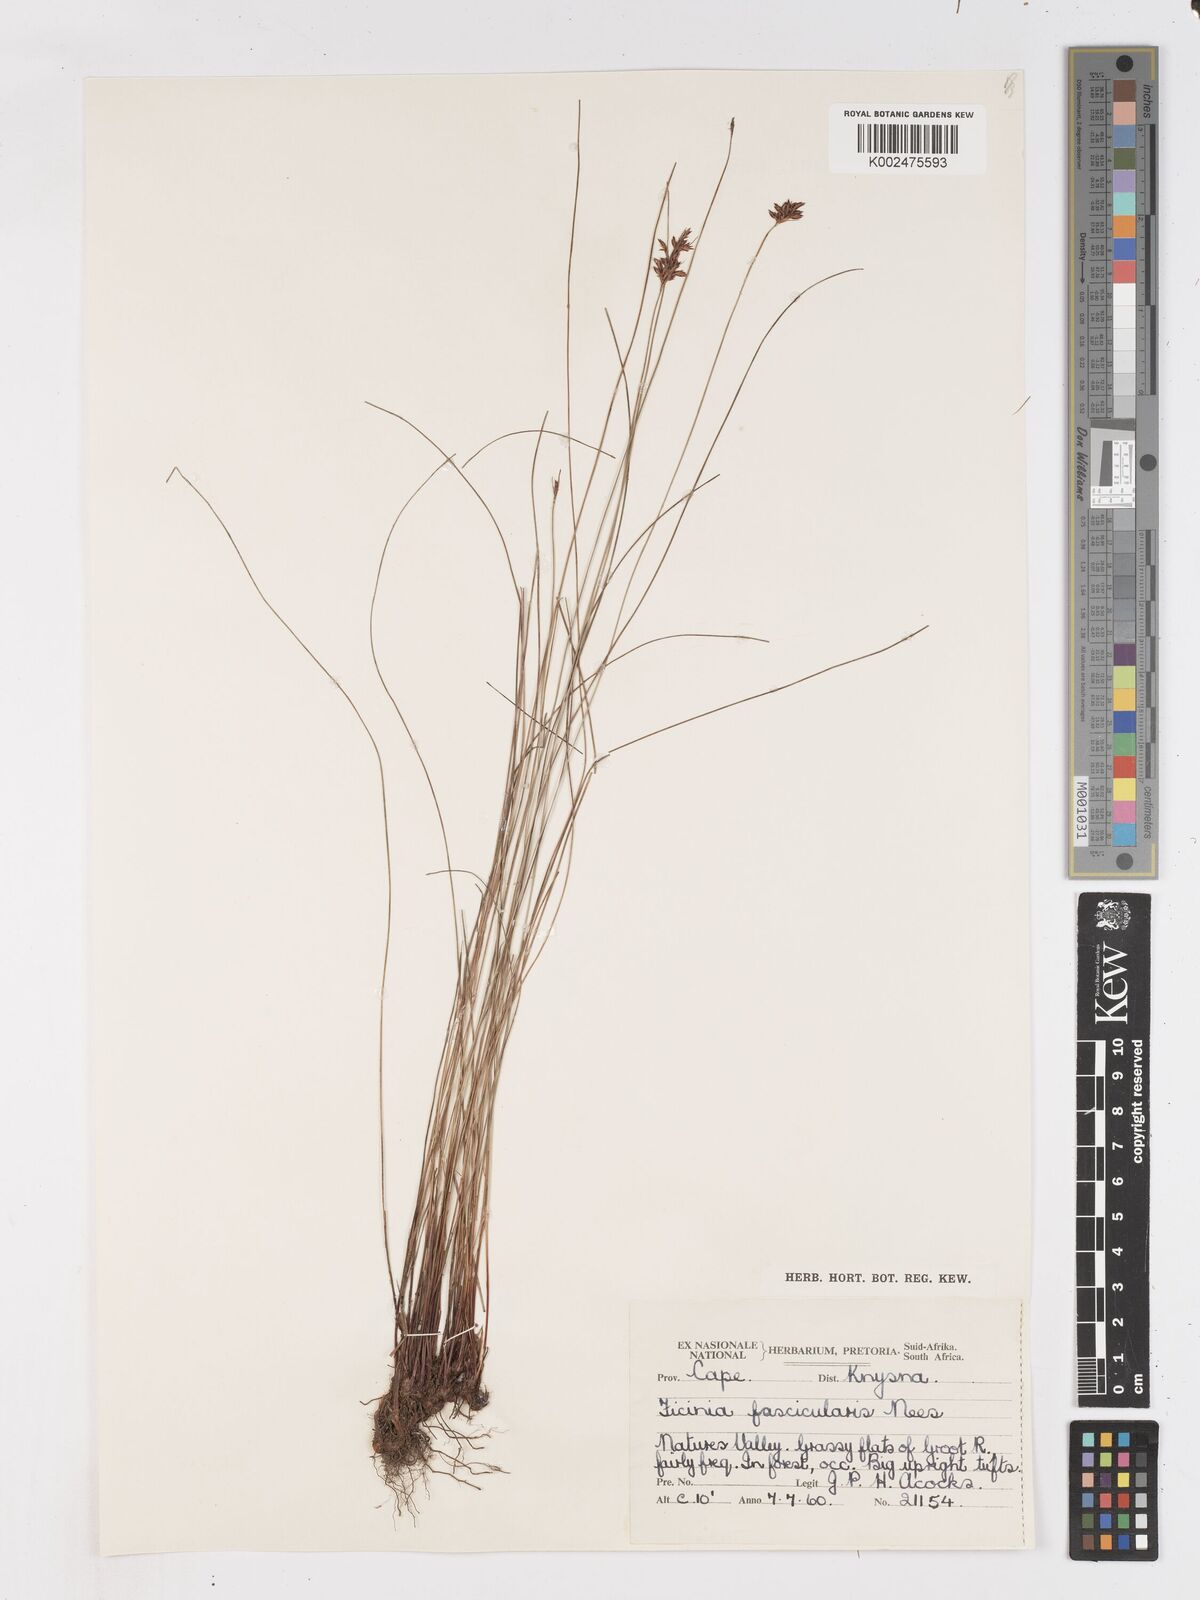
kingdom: Plantae
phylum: Tracheophyta
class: Liliopsida
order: Poales
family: Cyperaceae
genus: Ficinia
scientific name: Ficinia fascicularis
